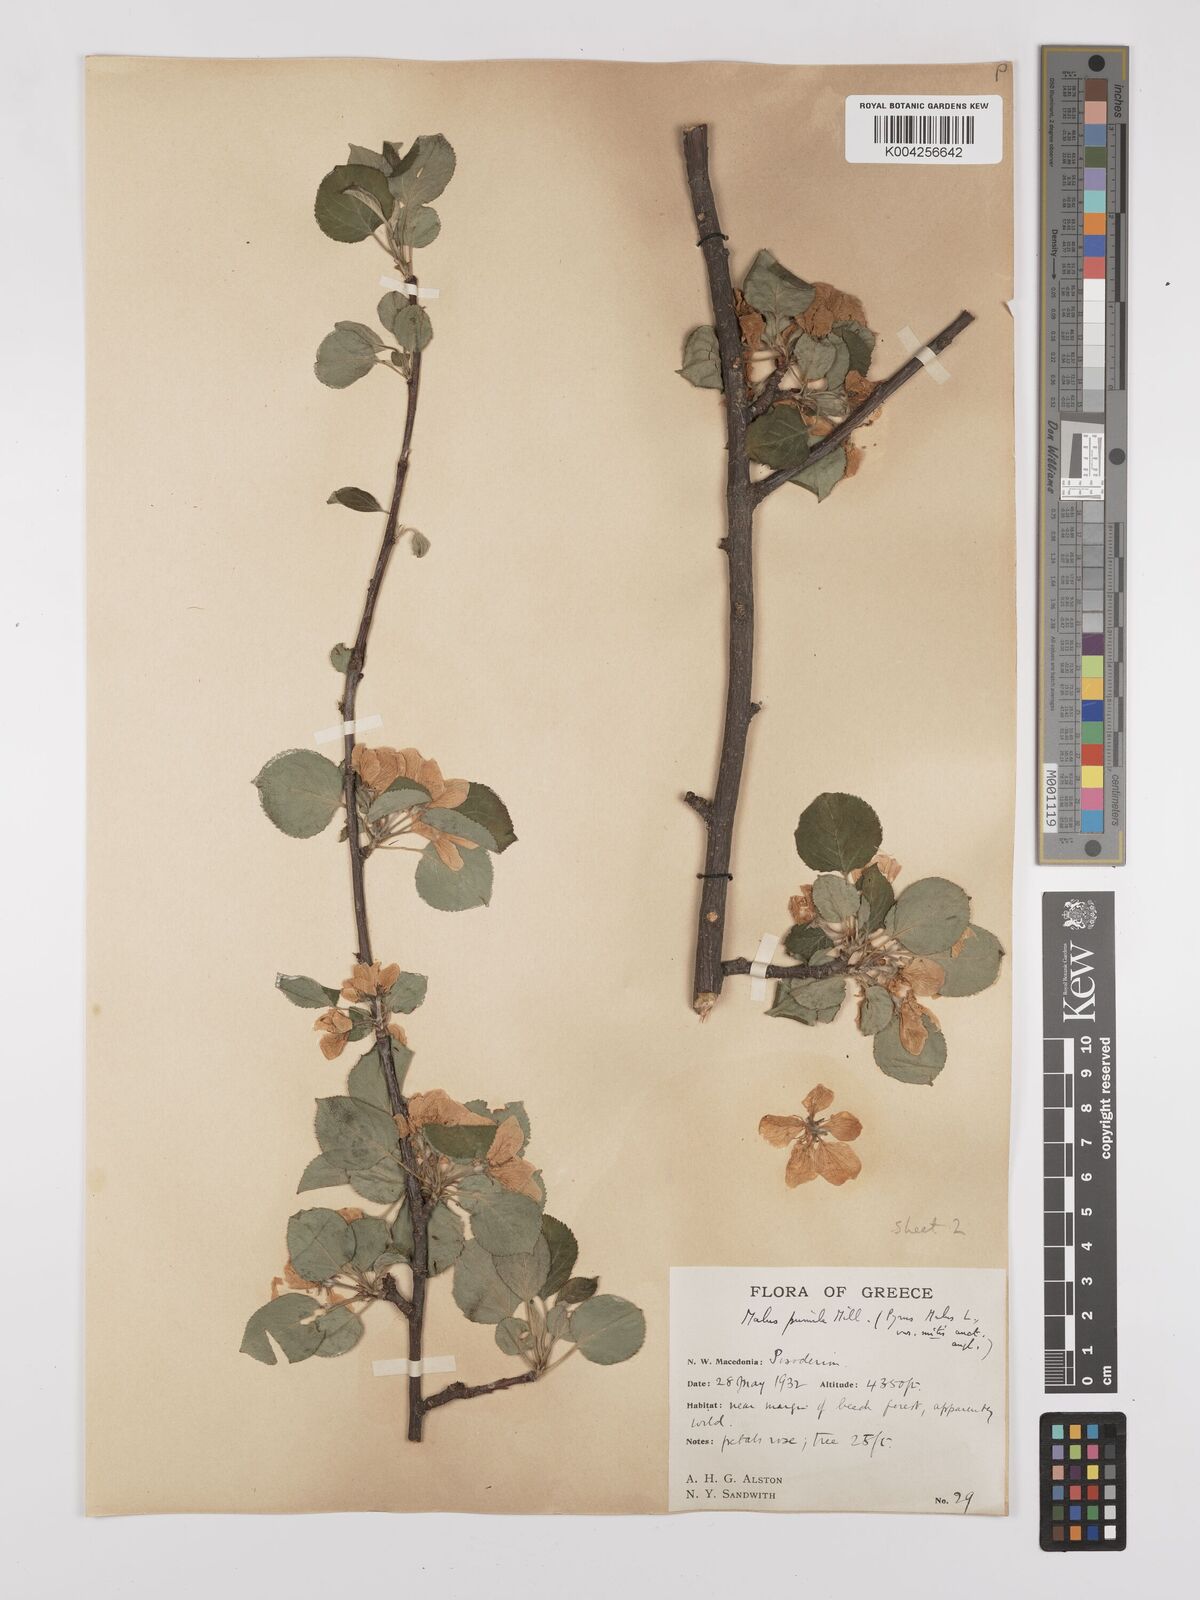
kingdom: Plantae
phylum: Tracheophyta
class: Magnoliopsida
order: Rosales
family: Rosaceae
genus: Malus
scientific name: Malus domestica
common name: Apple
